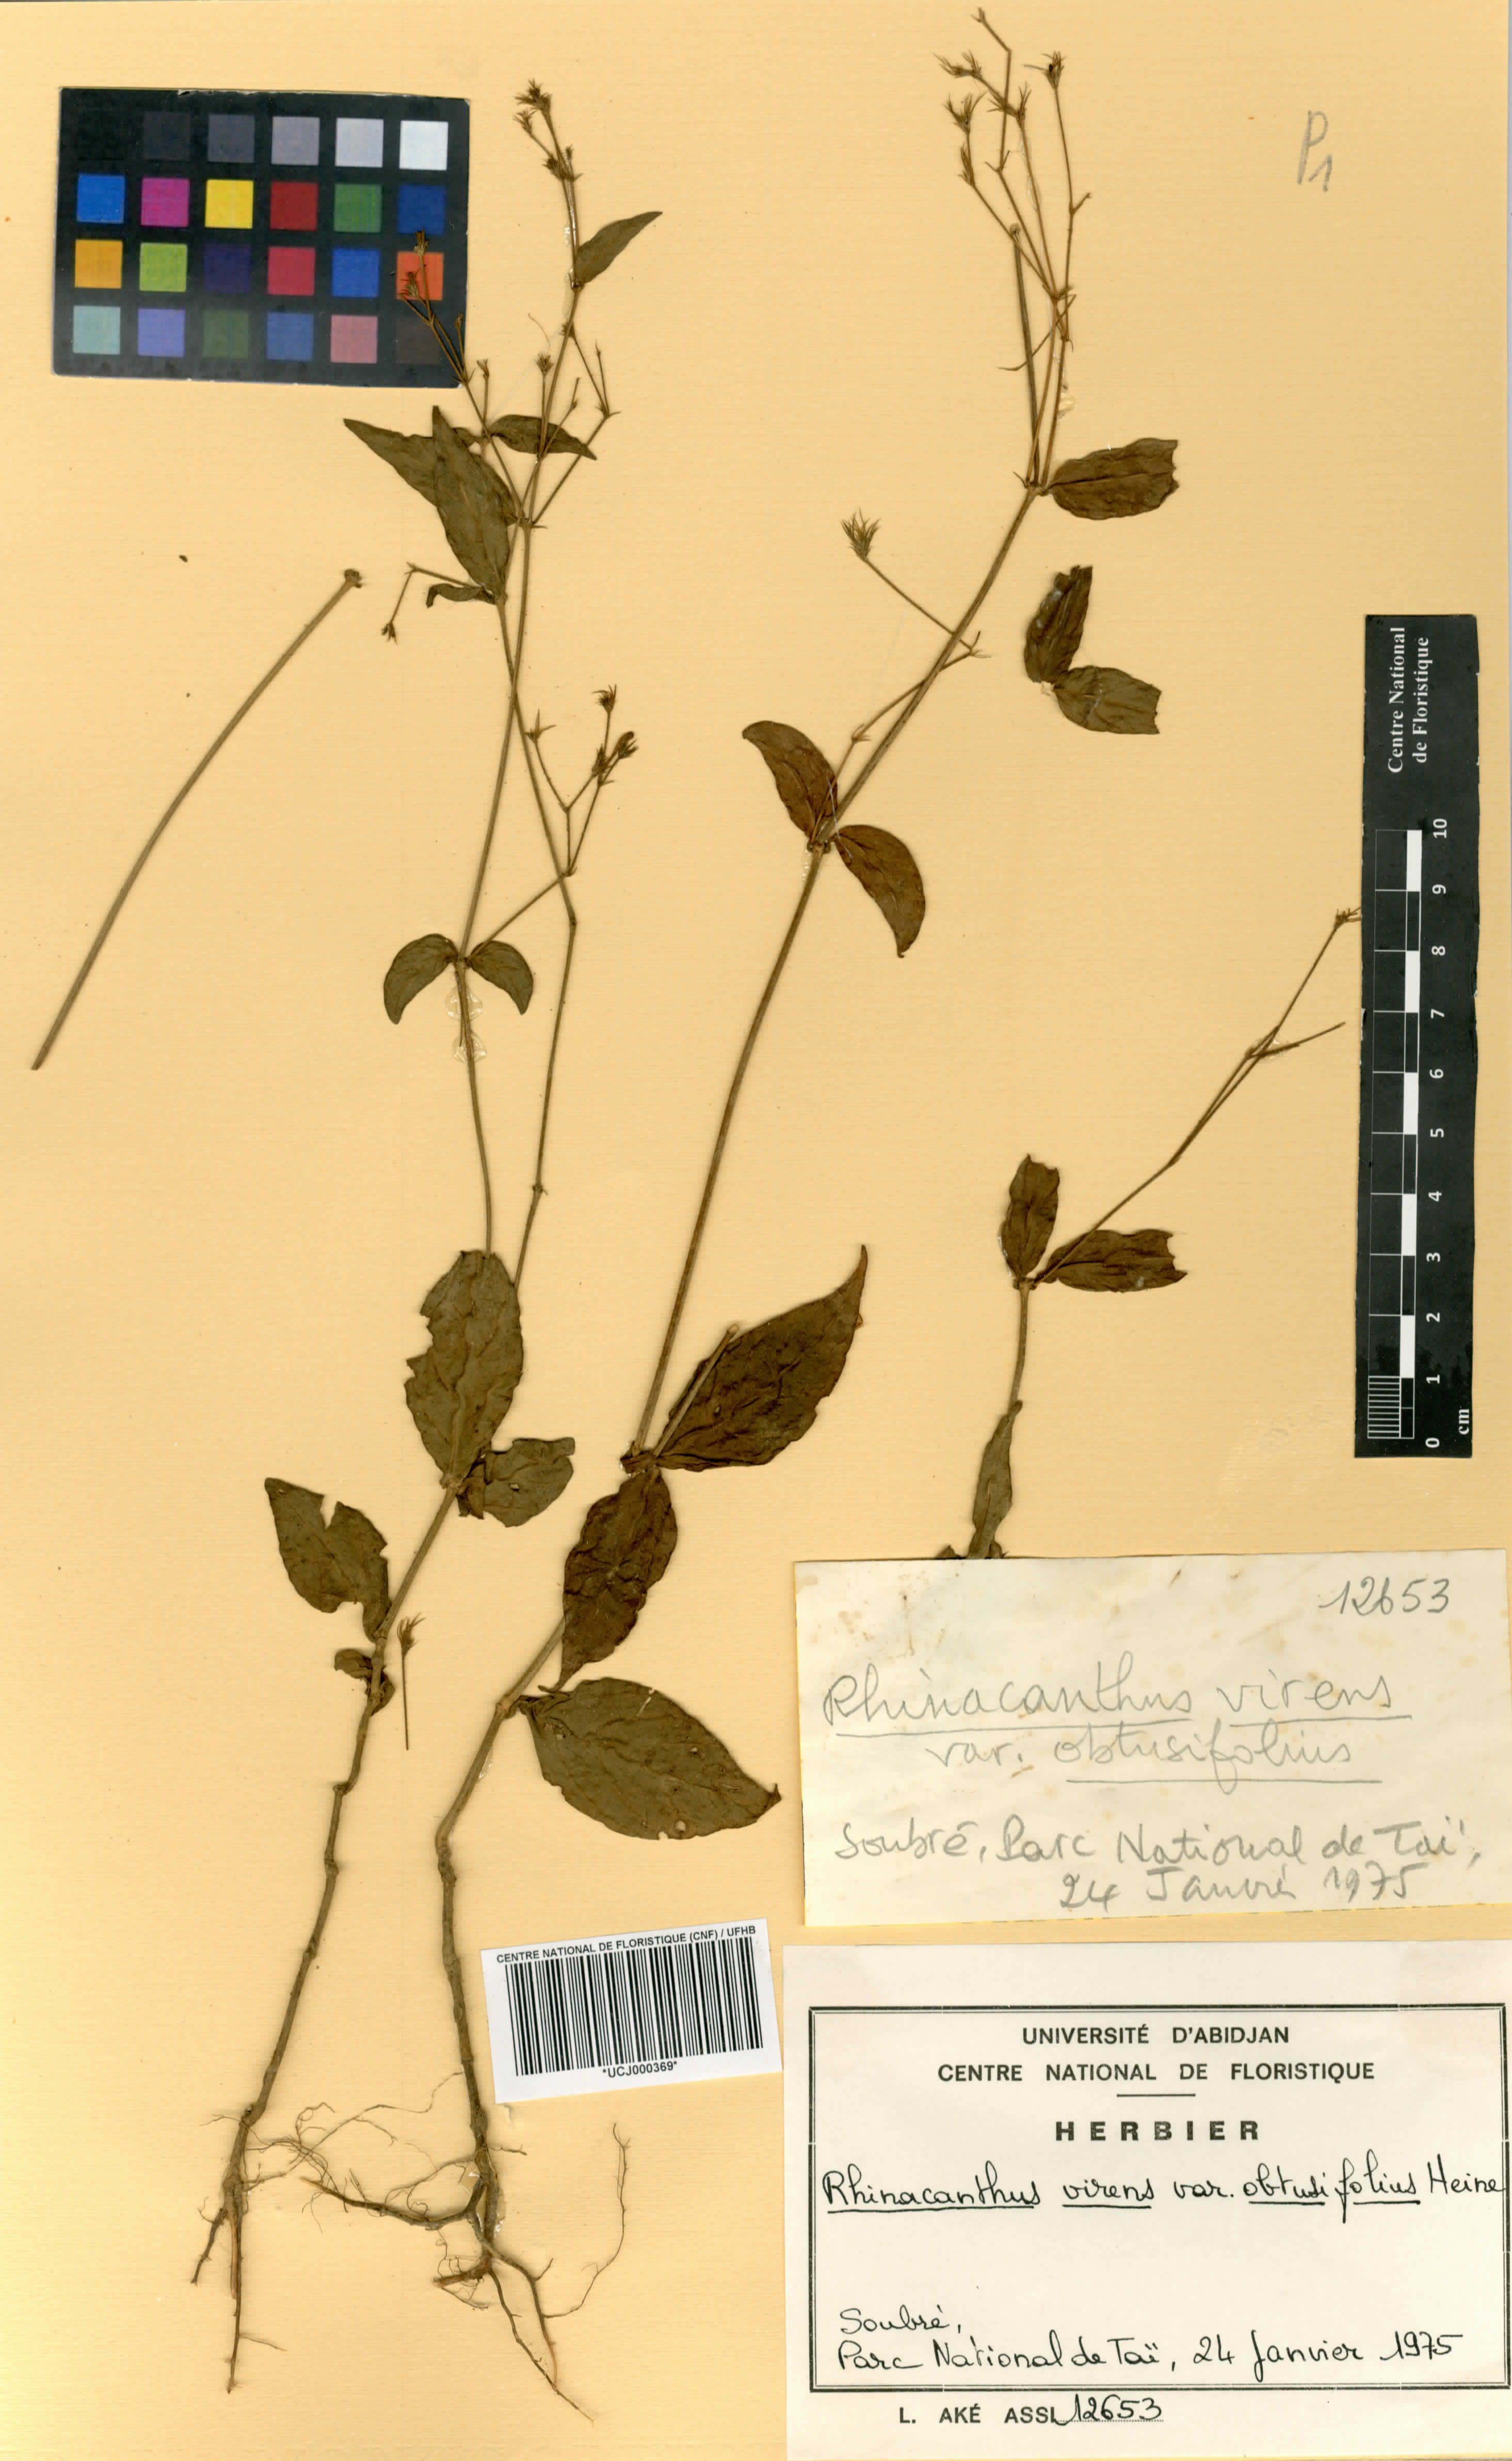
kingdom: Plantae
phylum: Tracheophyta
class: Magnoliopsida
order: Lamiales
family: Acanthaceae
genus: Rhinacanthus
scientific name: Rhinacanthus obtusifolius
